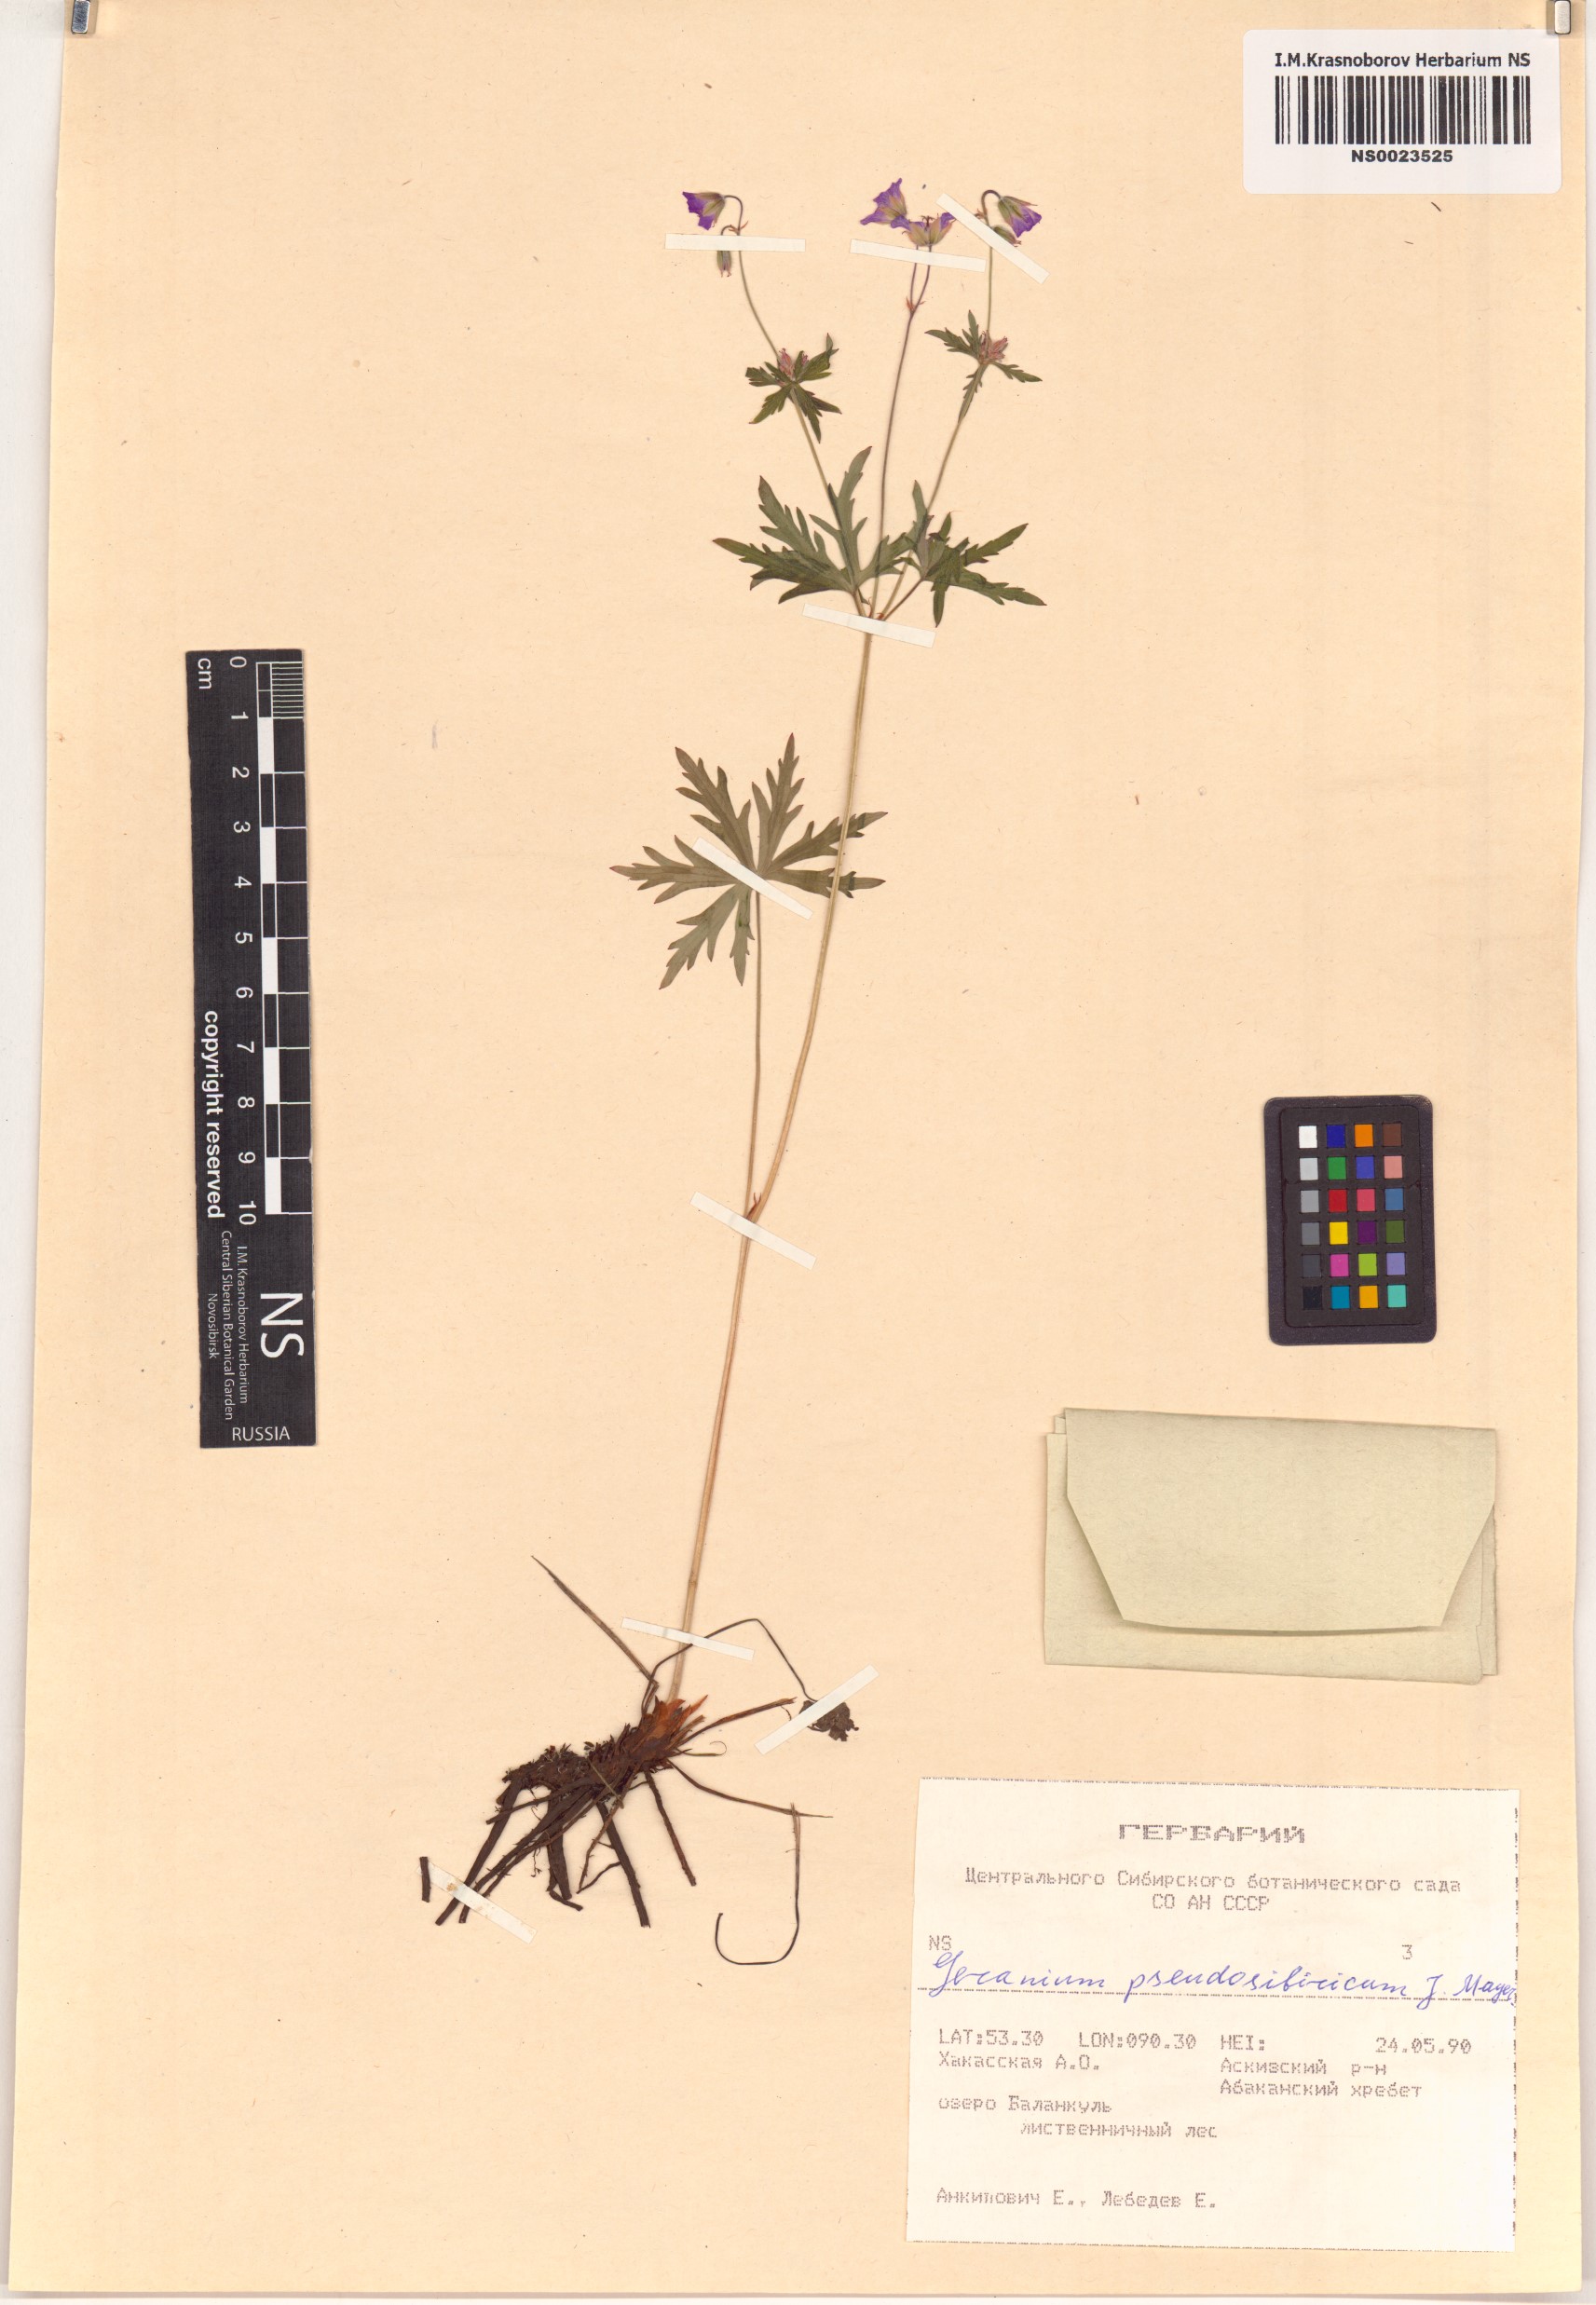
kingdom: Plantae
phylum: Tracheophyta
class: Magnoliopsida
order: Geraniales
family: Geraniaceae
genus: Geranium
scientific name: Geranium pseudosibiricum
